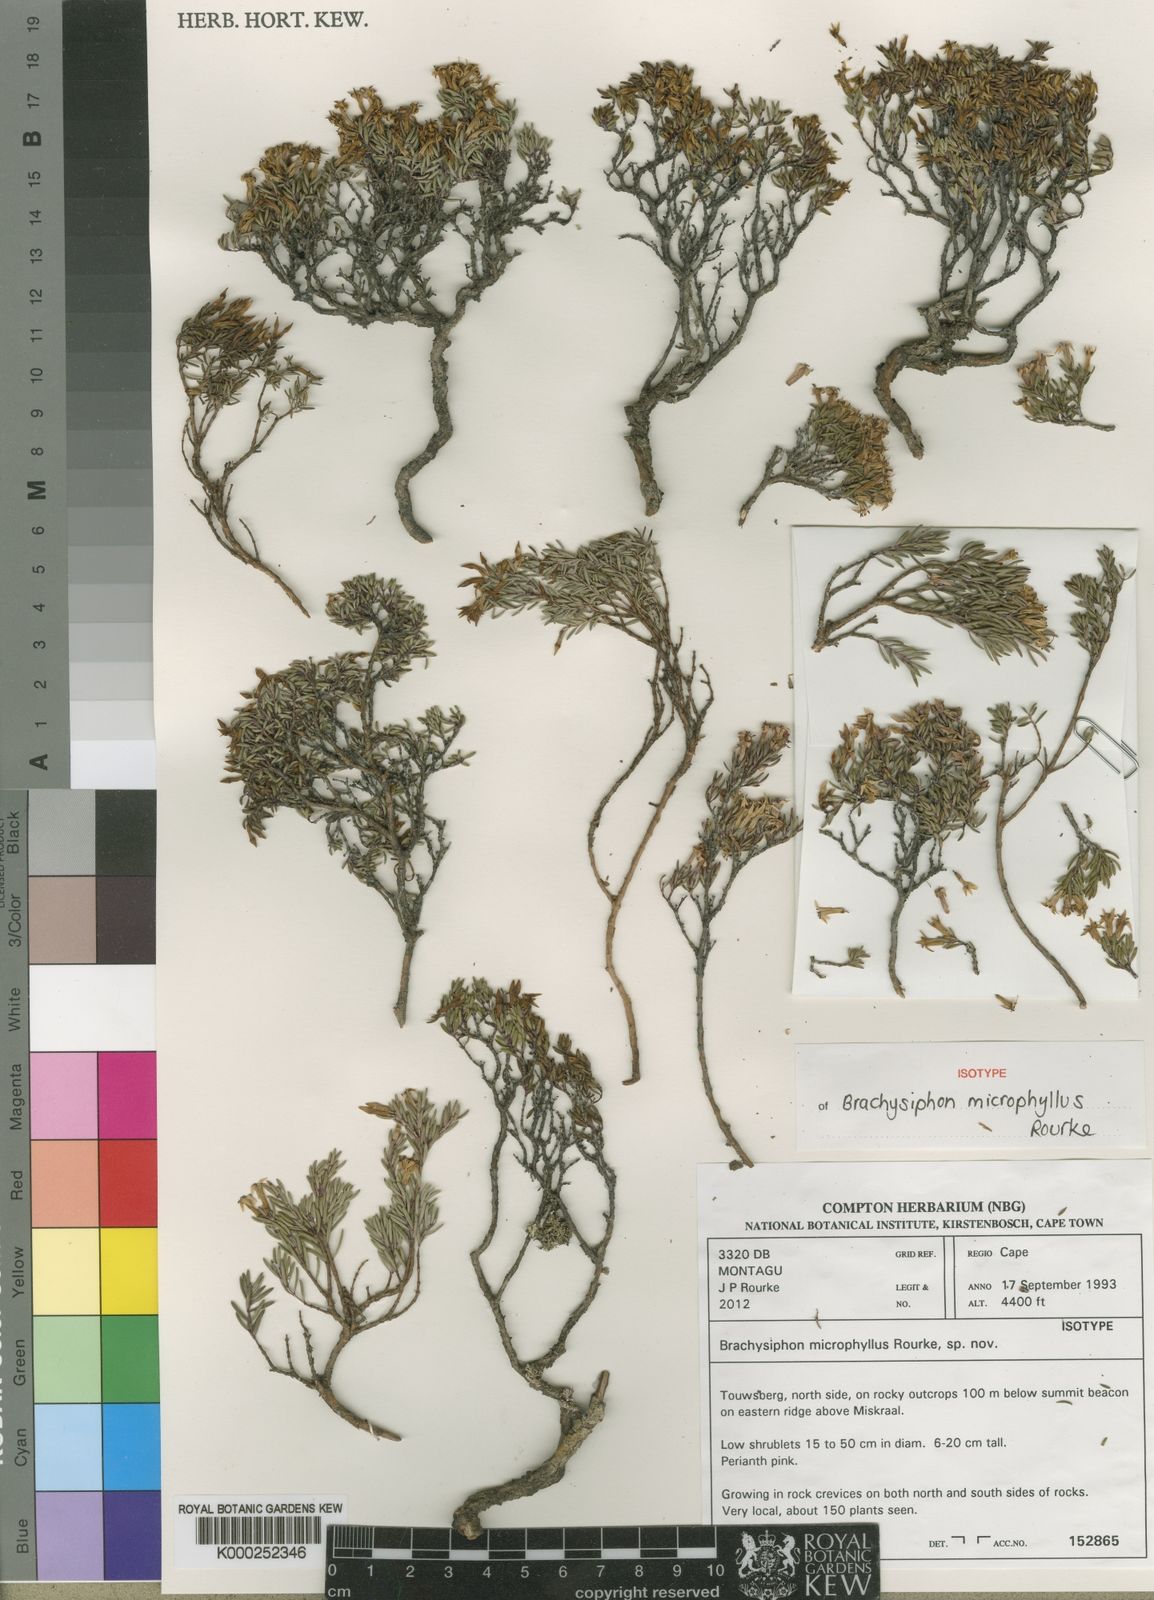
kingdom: Plantae
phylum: Tracheophyta
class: Magnoliopsida
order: Myrtales
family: Penaeaceae
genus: Brachysiphon
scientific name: Brachysiphon microphyllus
